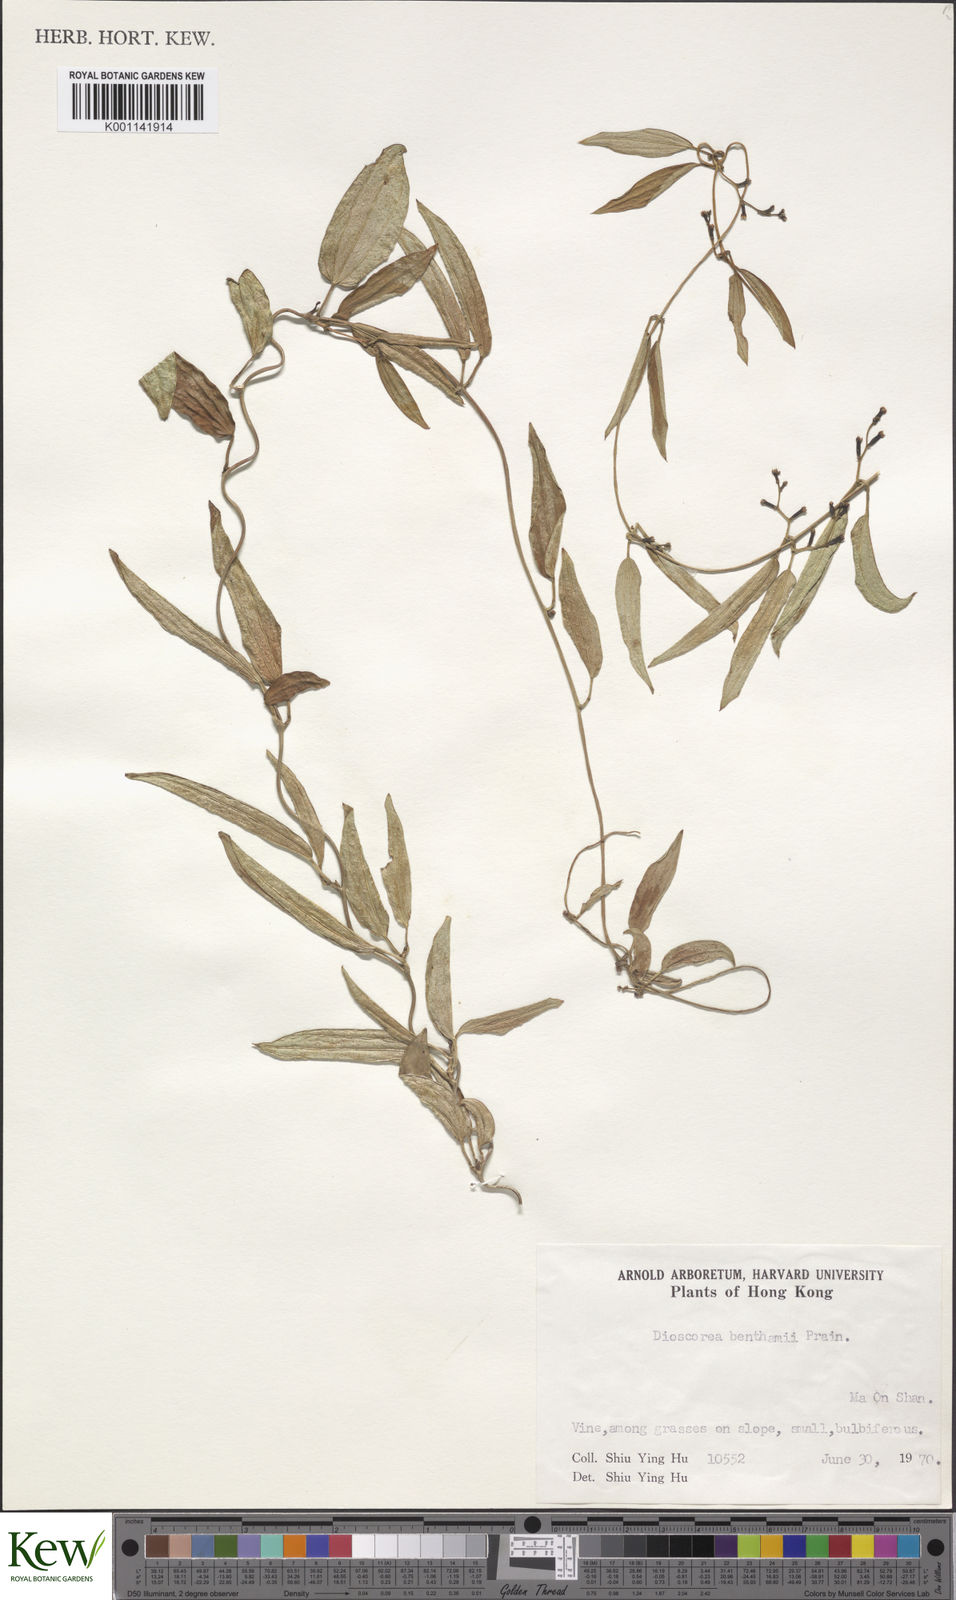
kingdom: Plantae
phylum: Tracheophyta
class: Liliopsida
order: Dioscoreales
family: Dioscoreaceae
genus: Dioscorea
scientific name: Dioscorea benthamii
